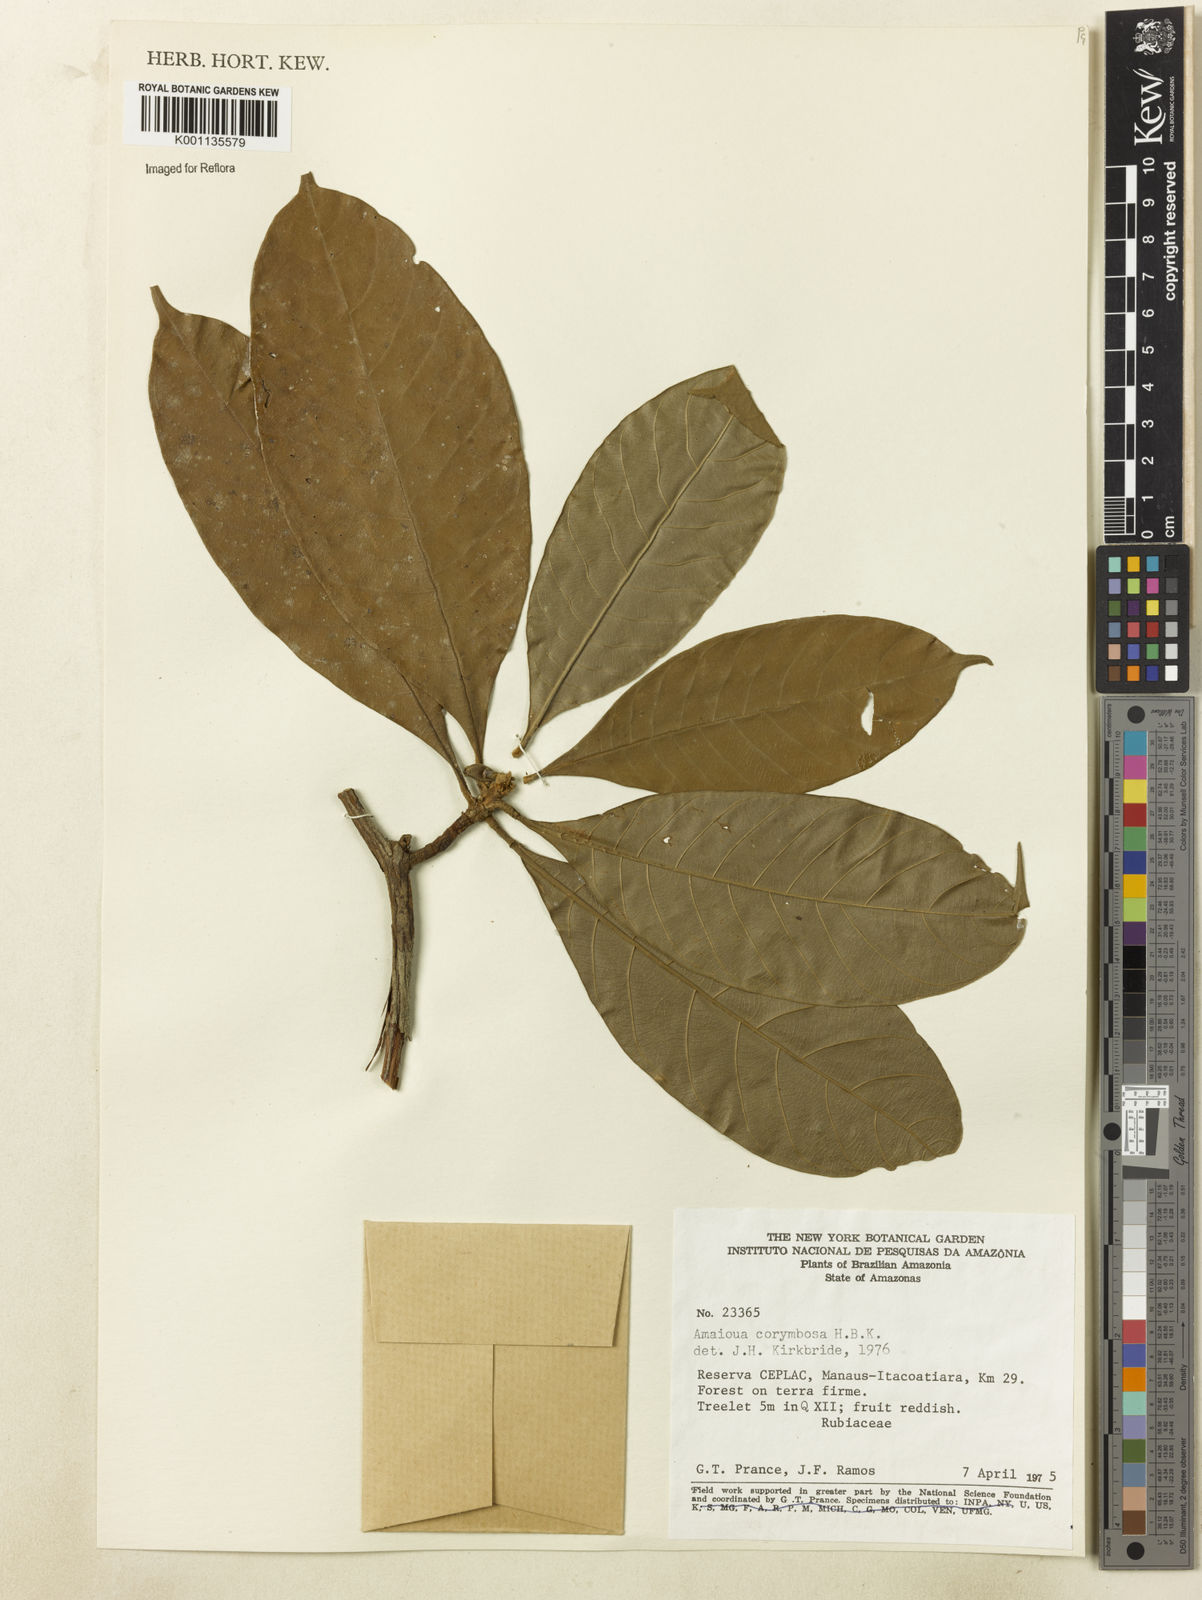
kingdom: Plantae
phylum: Tracheophyta
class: Magnoliopsida
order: Gentianales
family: Rubiaceae
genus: Amaioua
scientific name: Amaioua glomerulata
